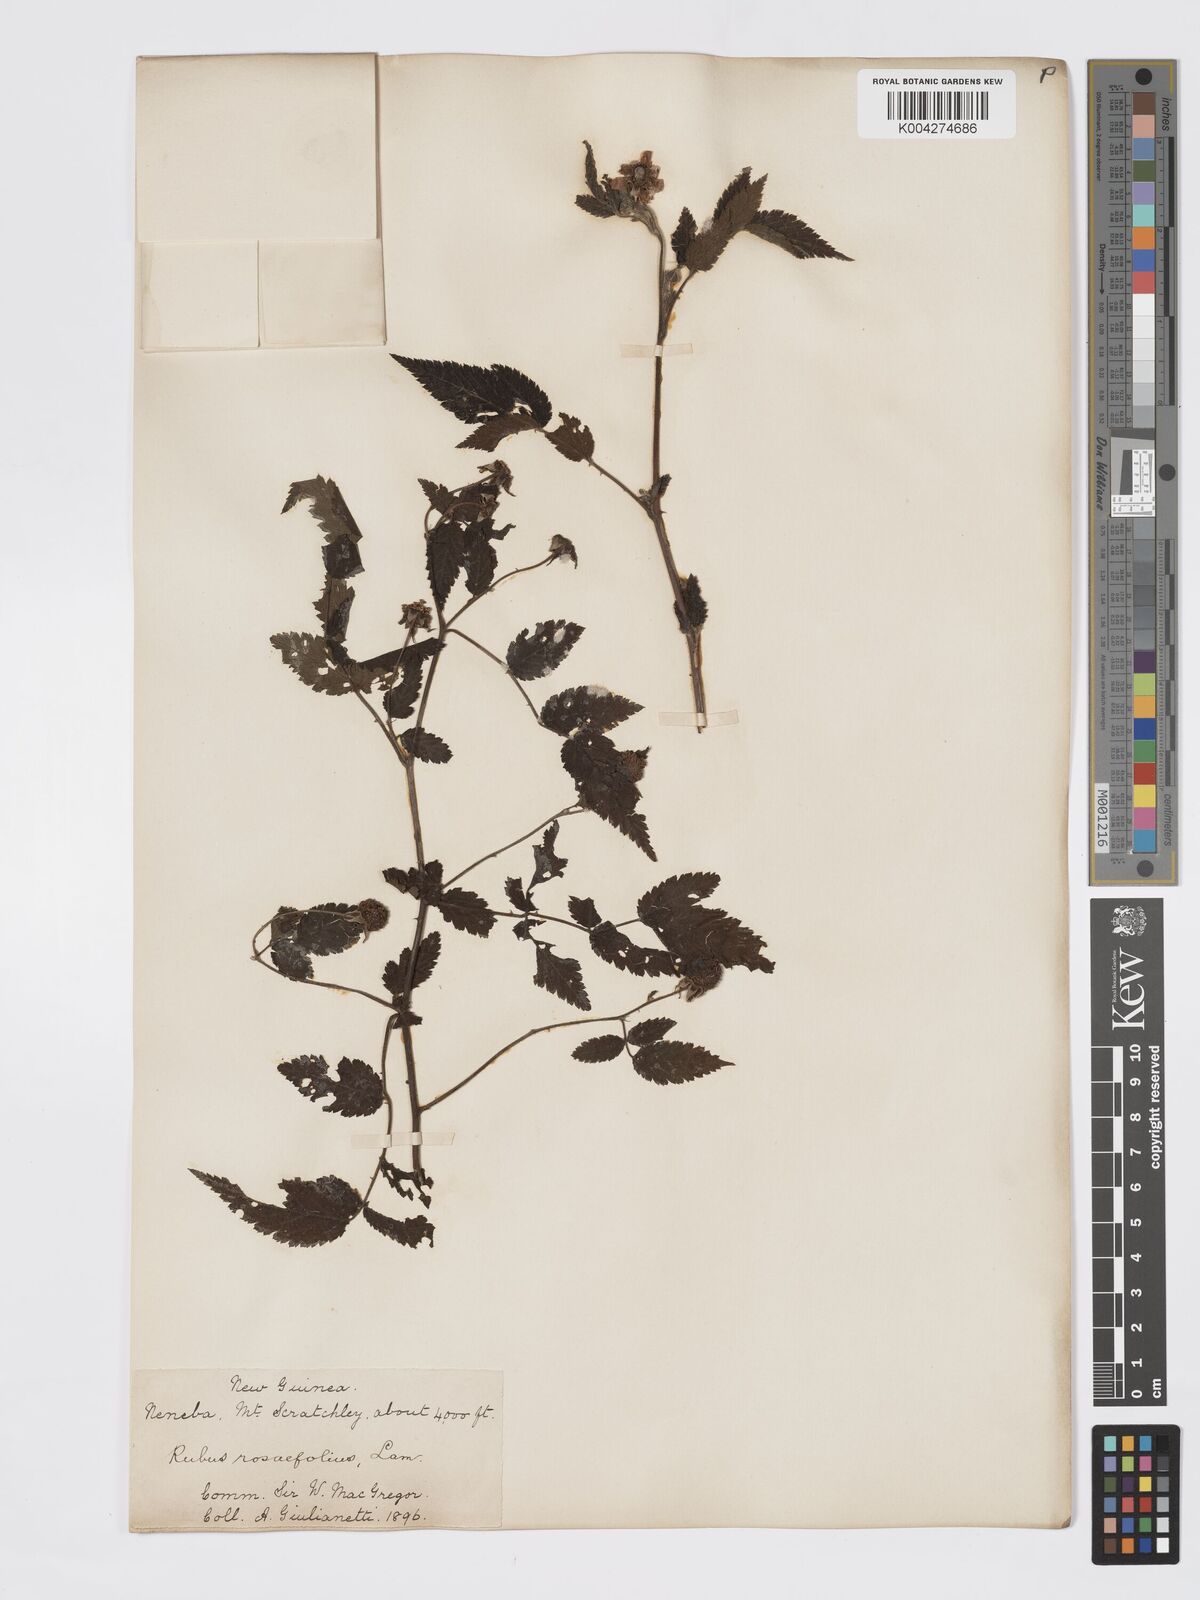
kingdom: Plantae
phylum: Tracheophyta
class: Magnoliopsida
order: Rosales
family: Rosaceae
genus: Rubus
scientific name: Rubus
